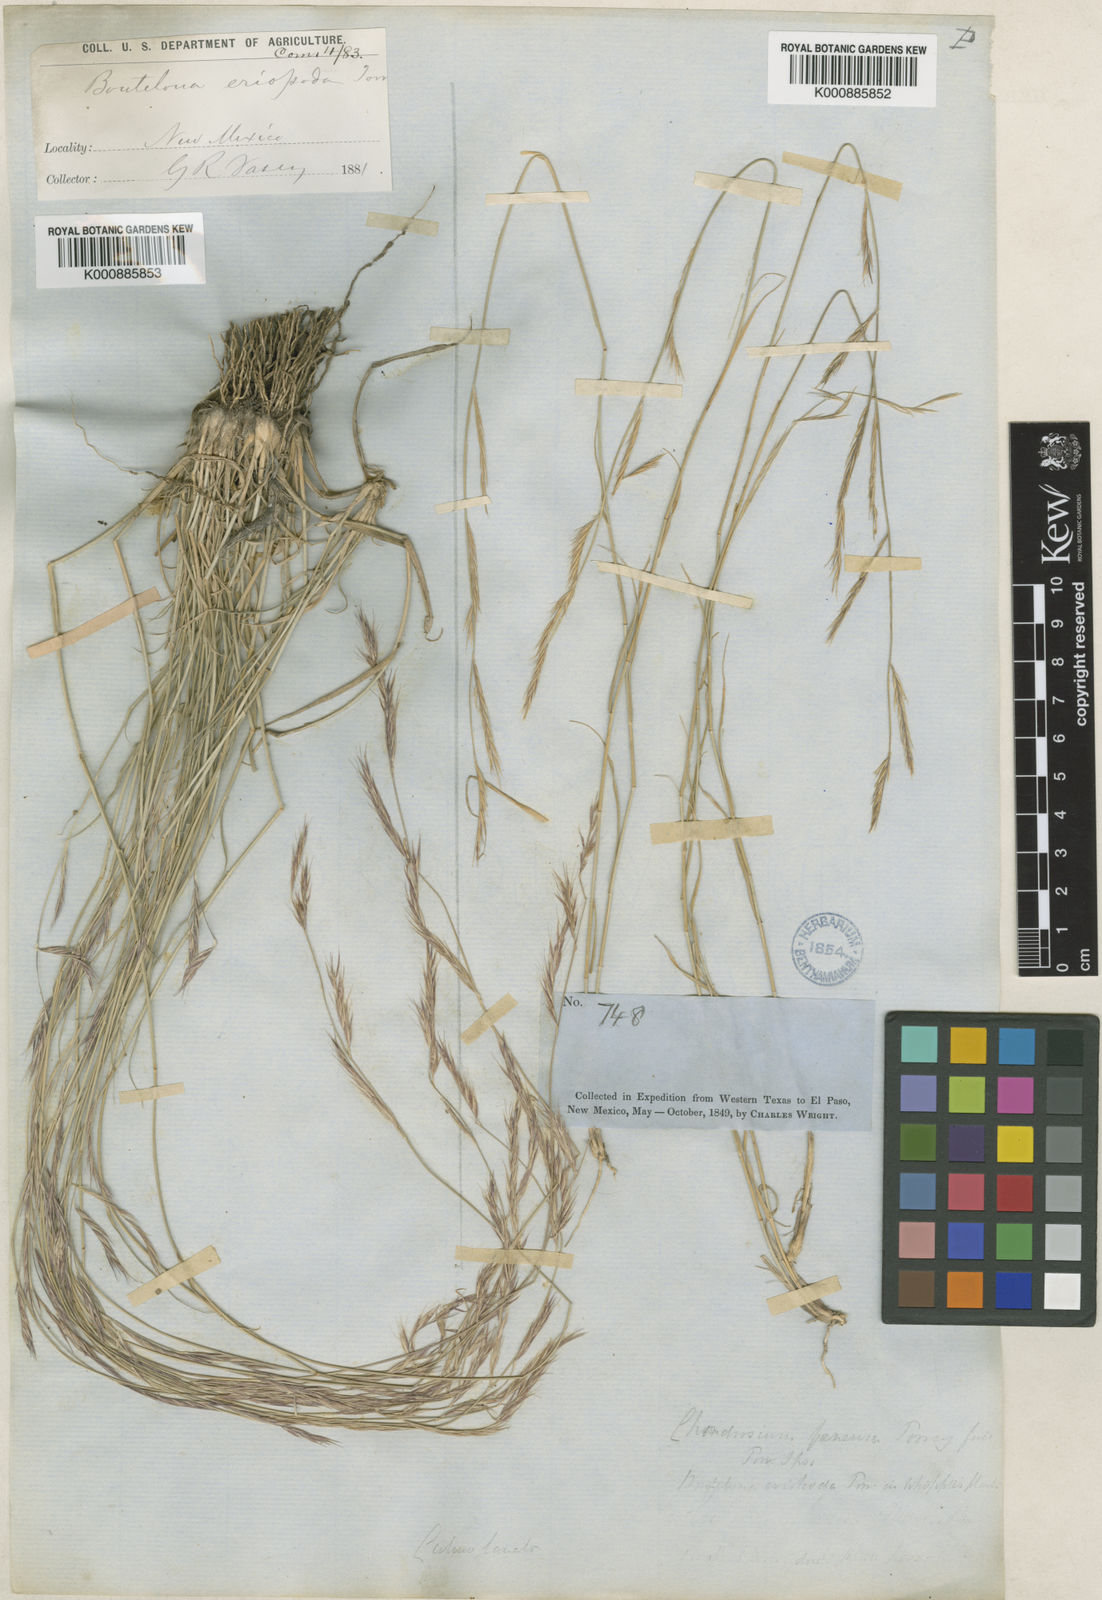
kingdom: Plantae
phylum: Tracheophyta
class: Liliopsida
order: Poales
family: Poaceae
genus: Bouteloua
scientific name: Bouteloua eriopoda
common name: Woolly foot grama
